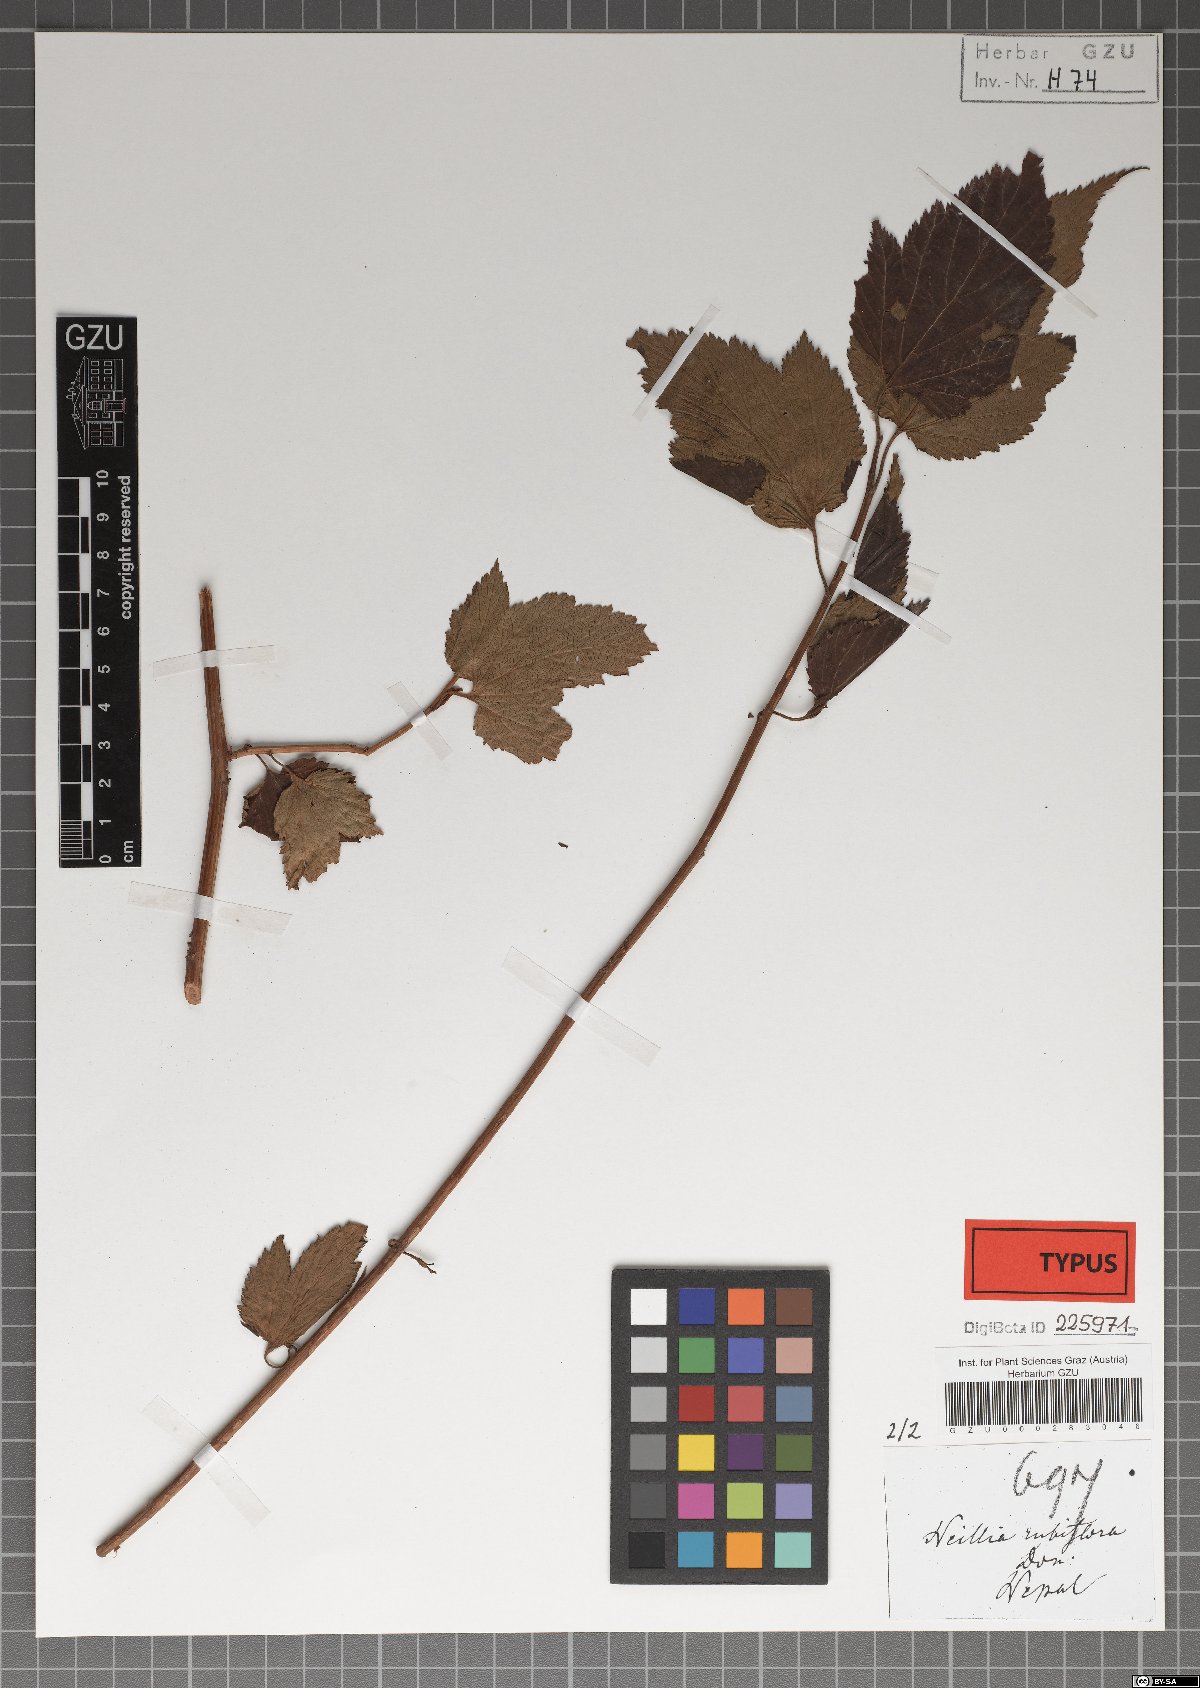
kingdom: Plantae
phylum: Tracheophyta
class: Magnoliopsida
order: Rosales
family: Rosaceae
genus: Neillia
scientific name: Neillia rubiflora
